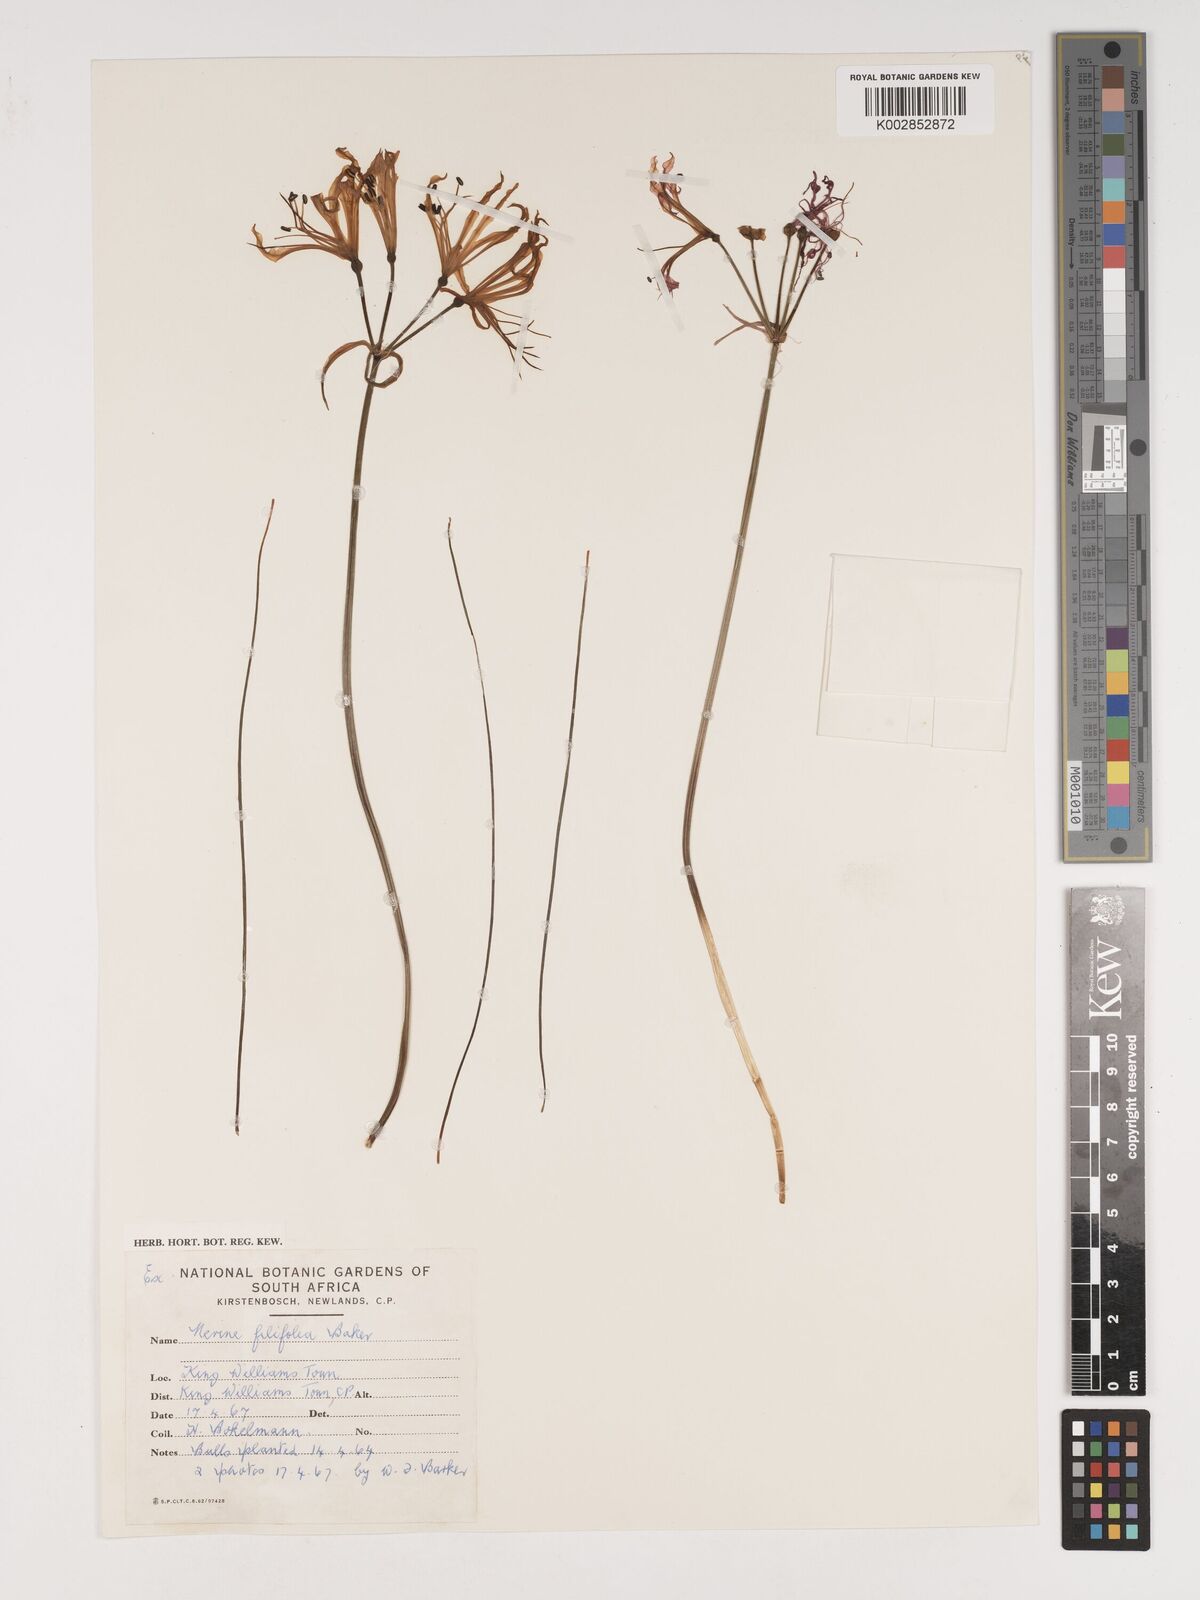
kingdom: Plantae
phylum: Tracheophyta
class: Liliopsida
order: Asparagales
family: Amaryllidaceae
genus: Nerine
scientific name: Nerine filifolia
